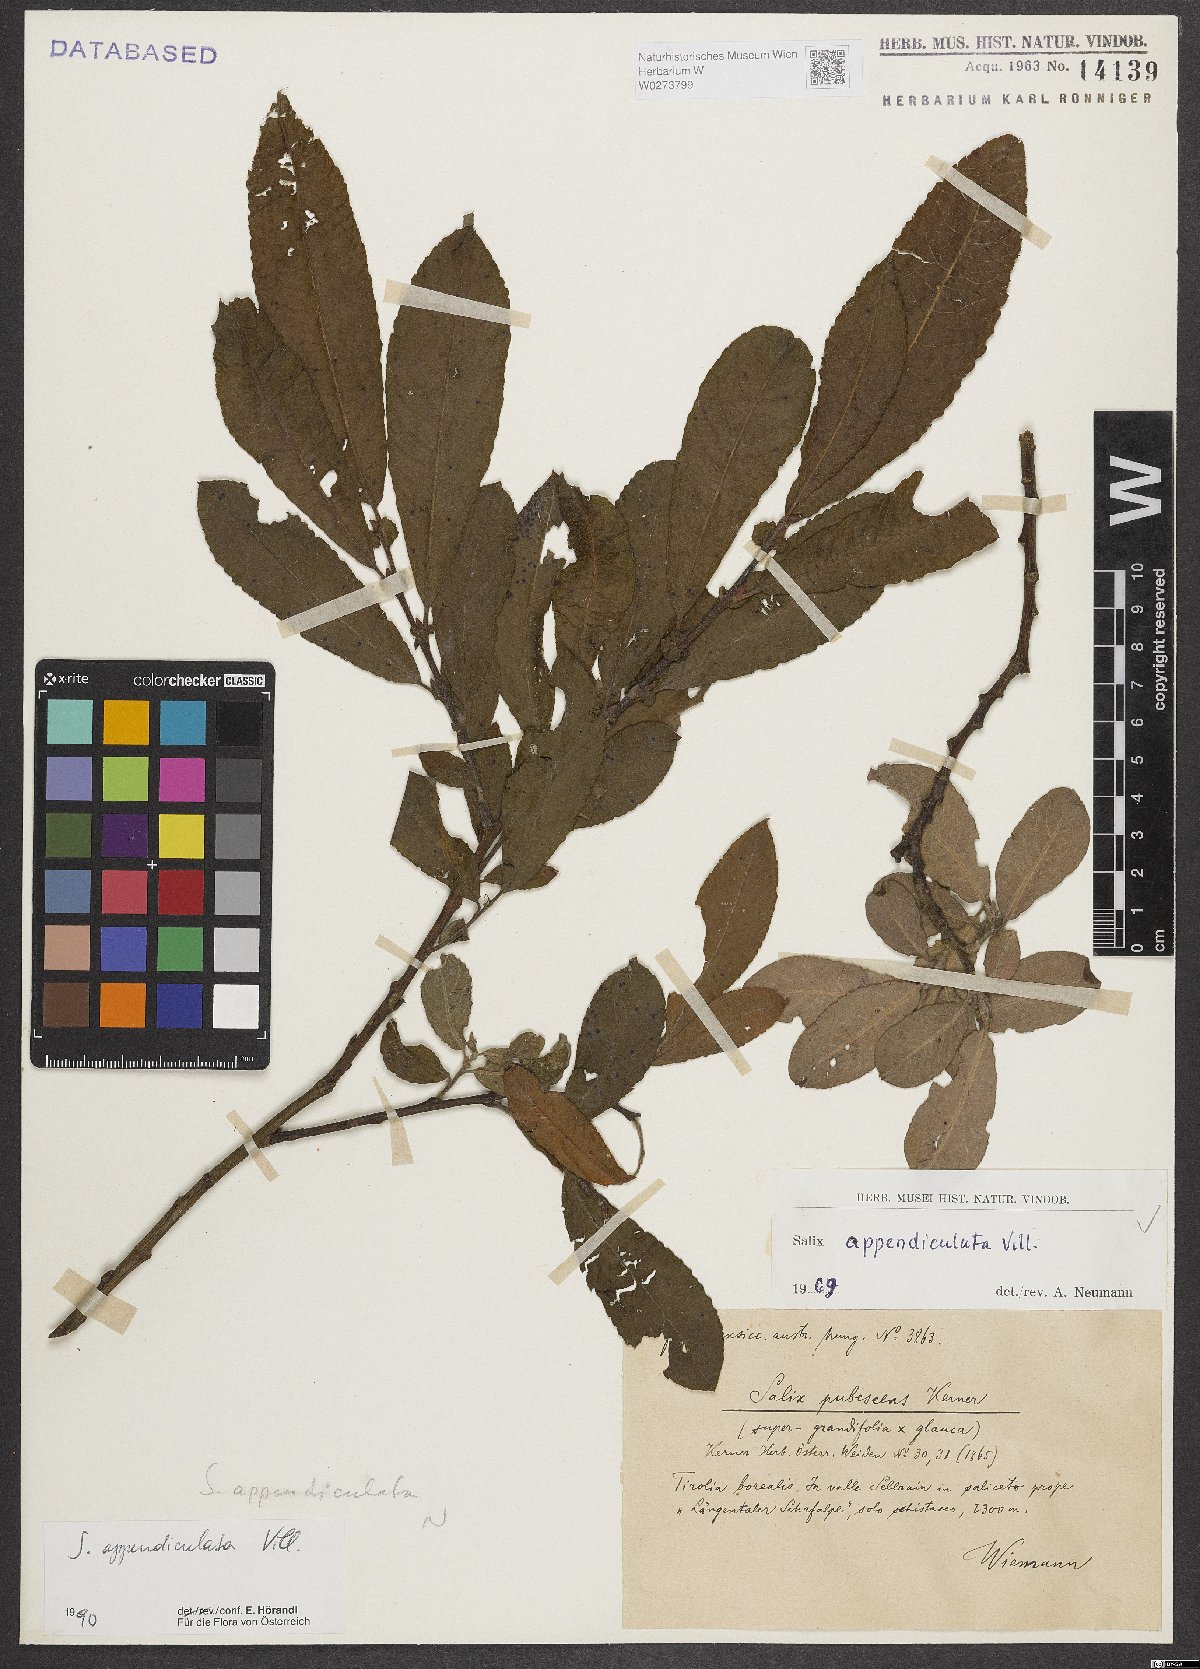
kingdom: Plantae
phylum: Tracheophyta
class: Magnoliopsida
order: Malpighiales
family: Salicaceae
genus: Salix
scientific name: Salix appendiculata
